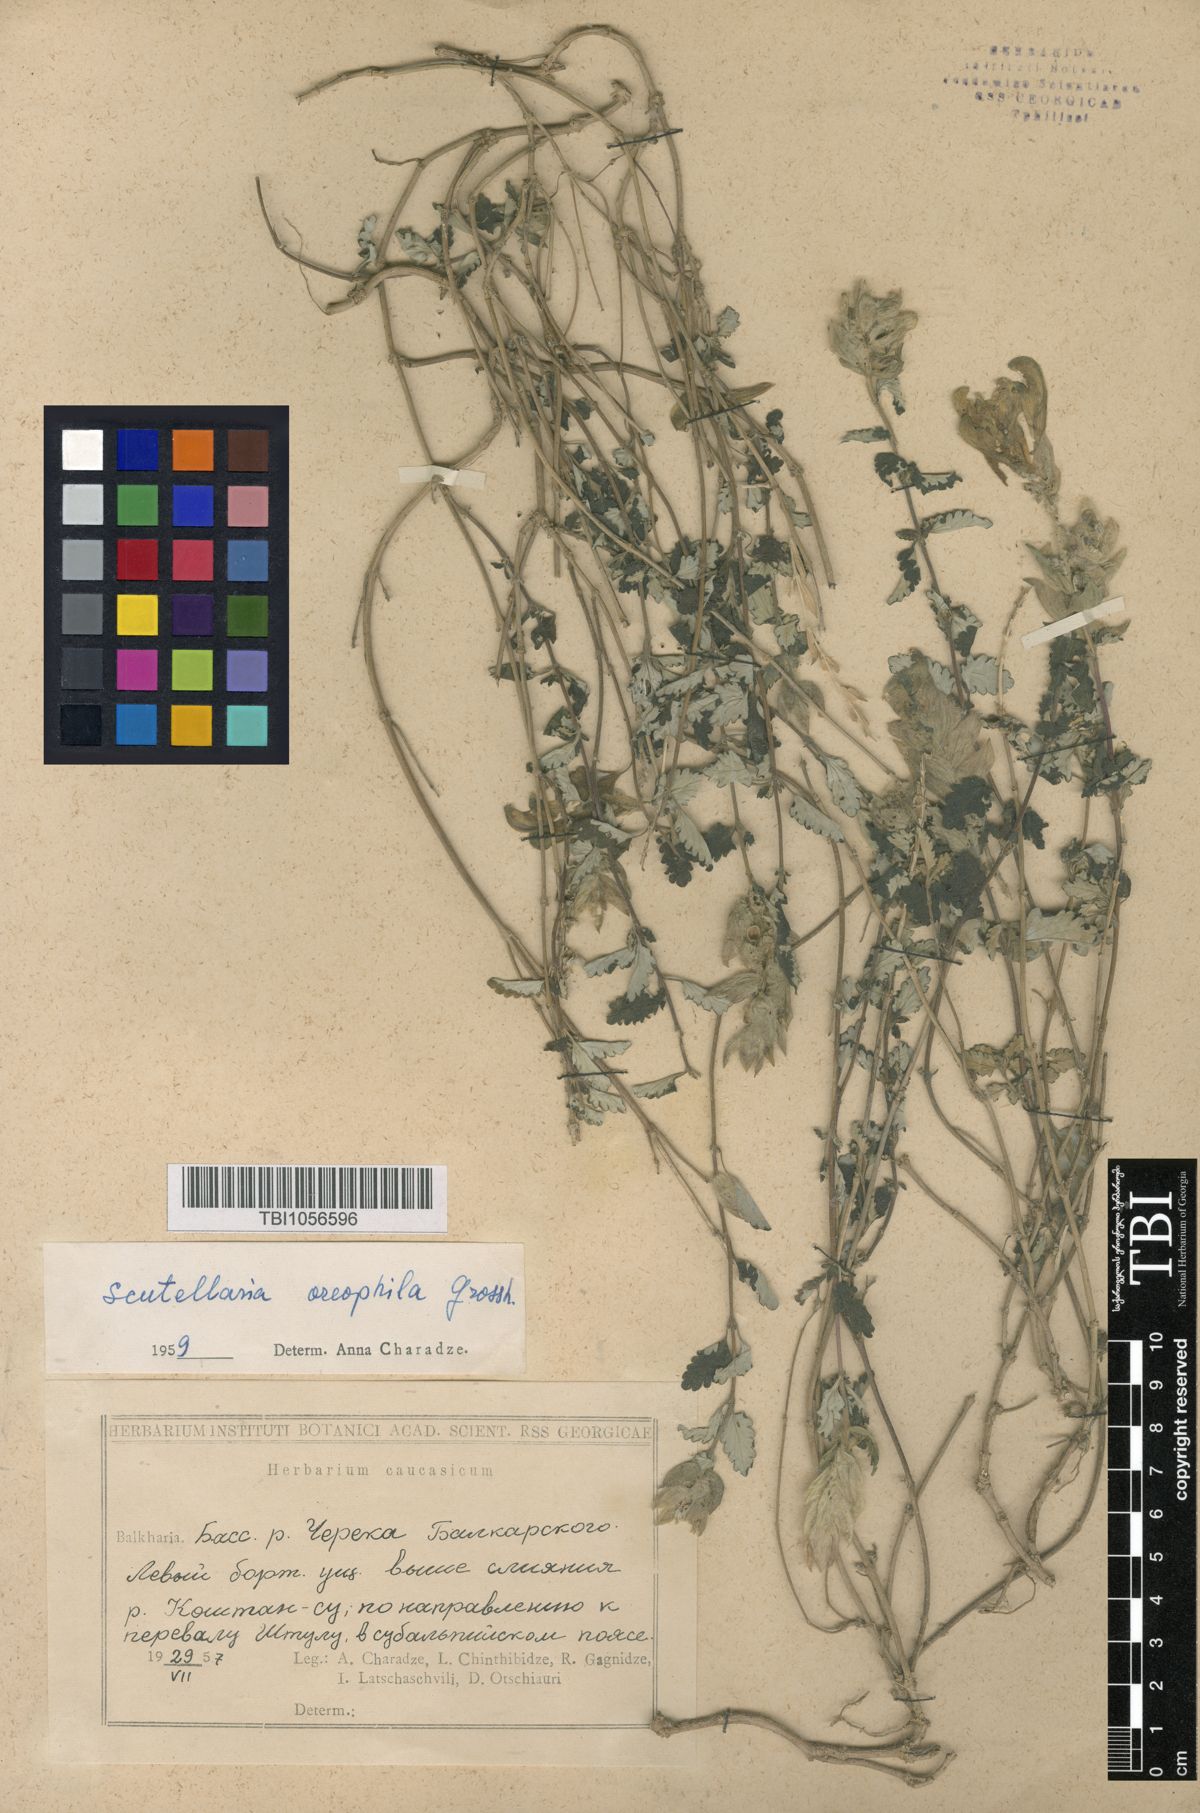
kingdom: Plantae
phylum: Tracheophyta
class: Magnoliopsida
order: Lamiales
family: Lamiaceae
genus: Scutellaria
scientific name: Scutellaria oreophila
